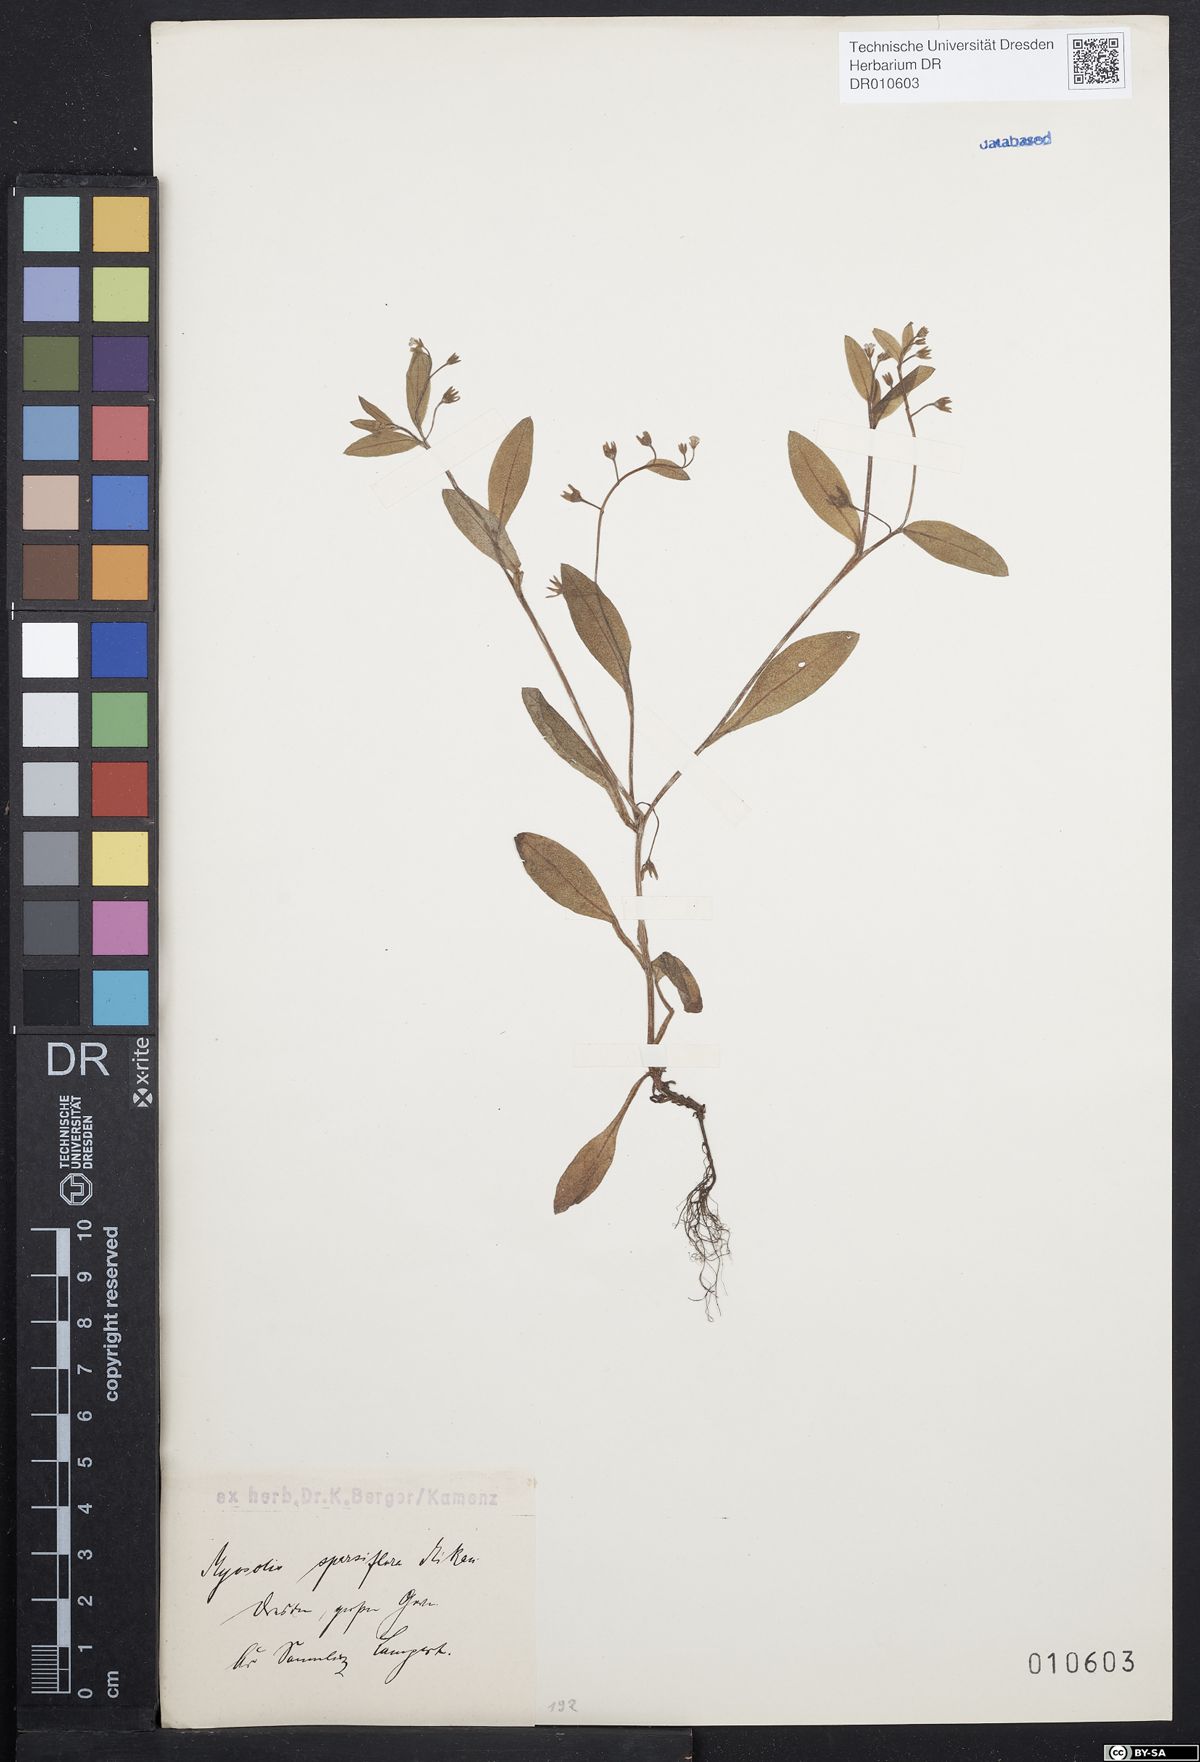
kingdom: Plantae
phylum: Tracheophyta
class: Magnoliopsida
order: Boraginales
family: Boraginaceae
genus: Myosotis
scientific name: Myosotis sparsiflora
